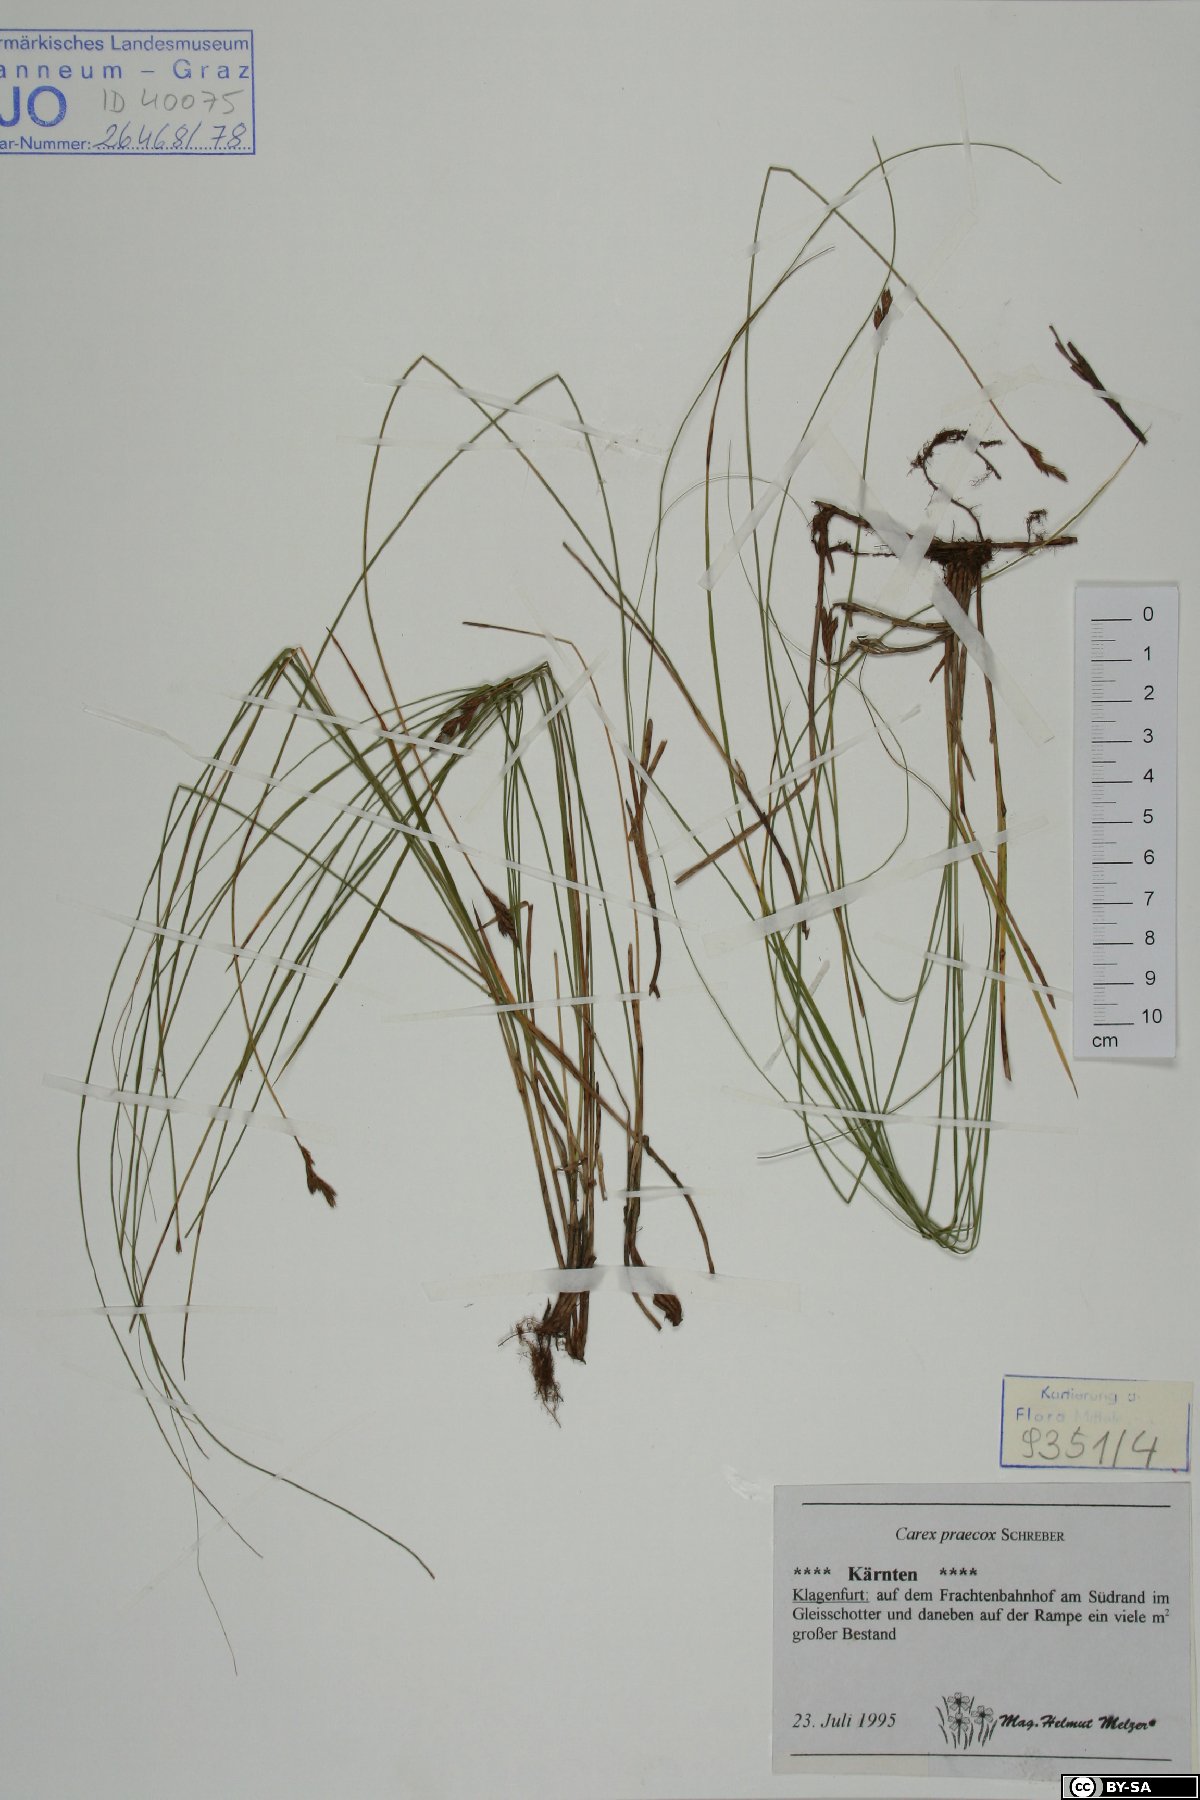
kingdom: Plantae
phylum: Tracheophyta
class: Liliopsida
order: Poales
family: Cyperaceae
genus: Carex
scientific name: Carex praecox
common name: Early sedge
